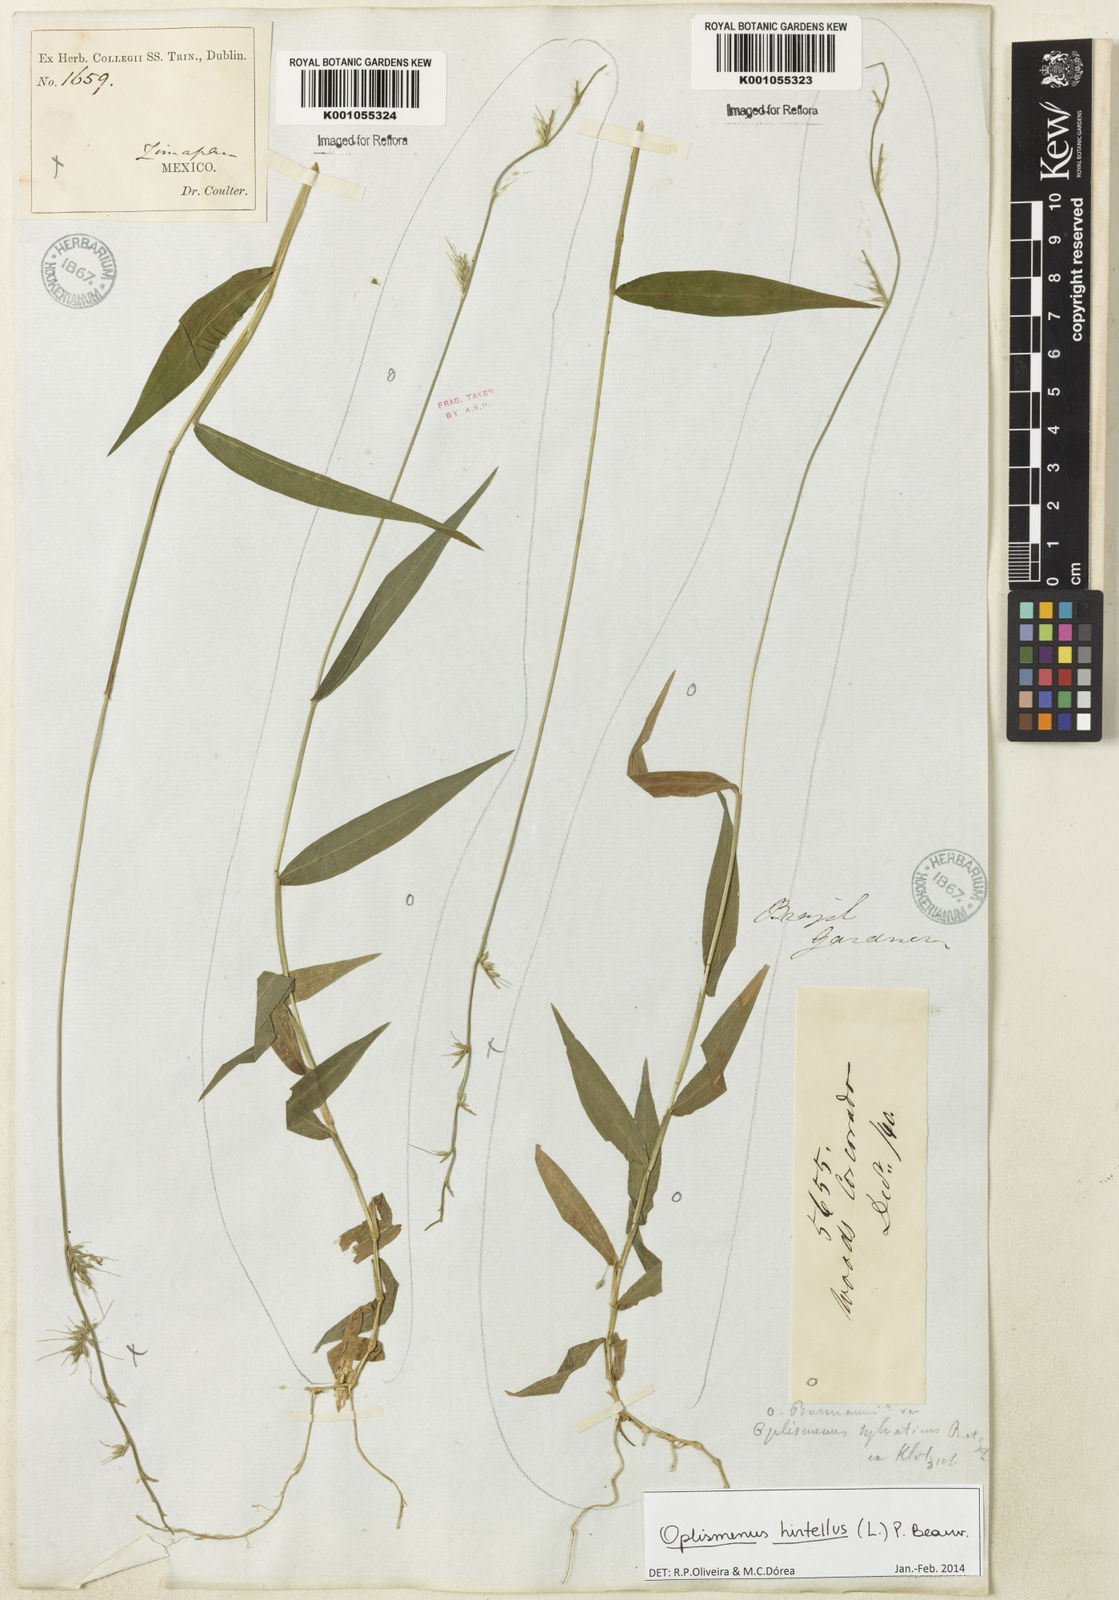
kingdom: Plantae
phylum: Tracheophyta
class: Liliopsida
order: Poales
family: Poaceae
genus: Oplismenus
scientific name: Oplismenus hirtellus
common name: Basketgrass
